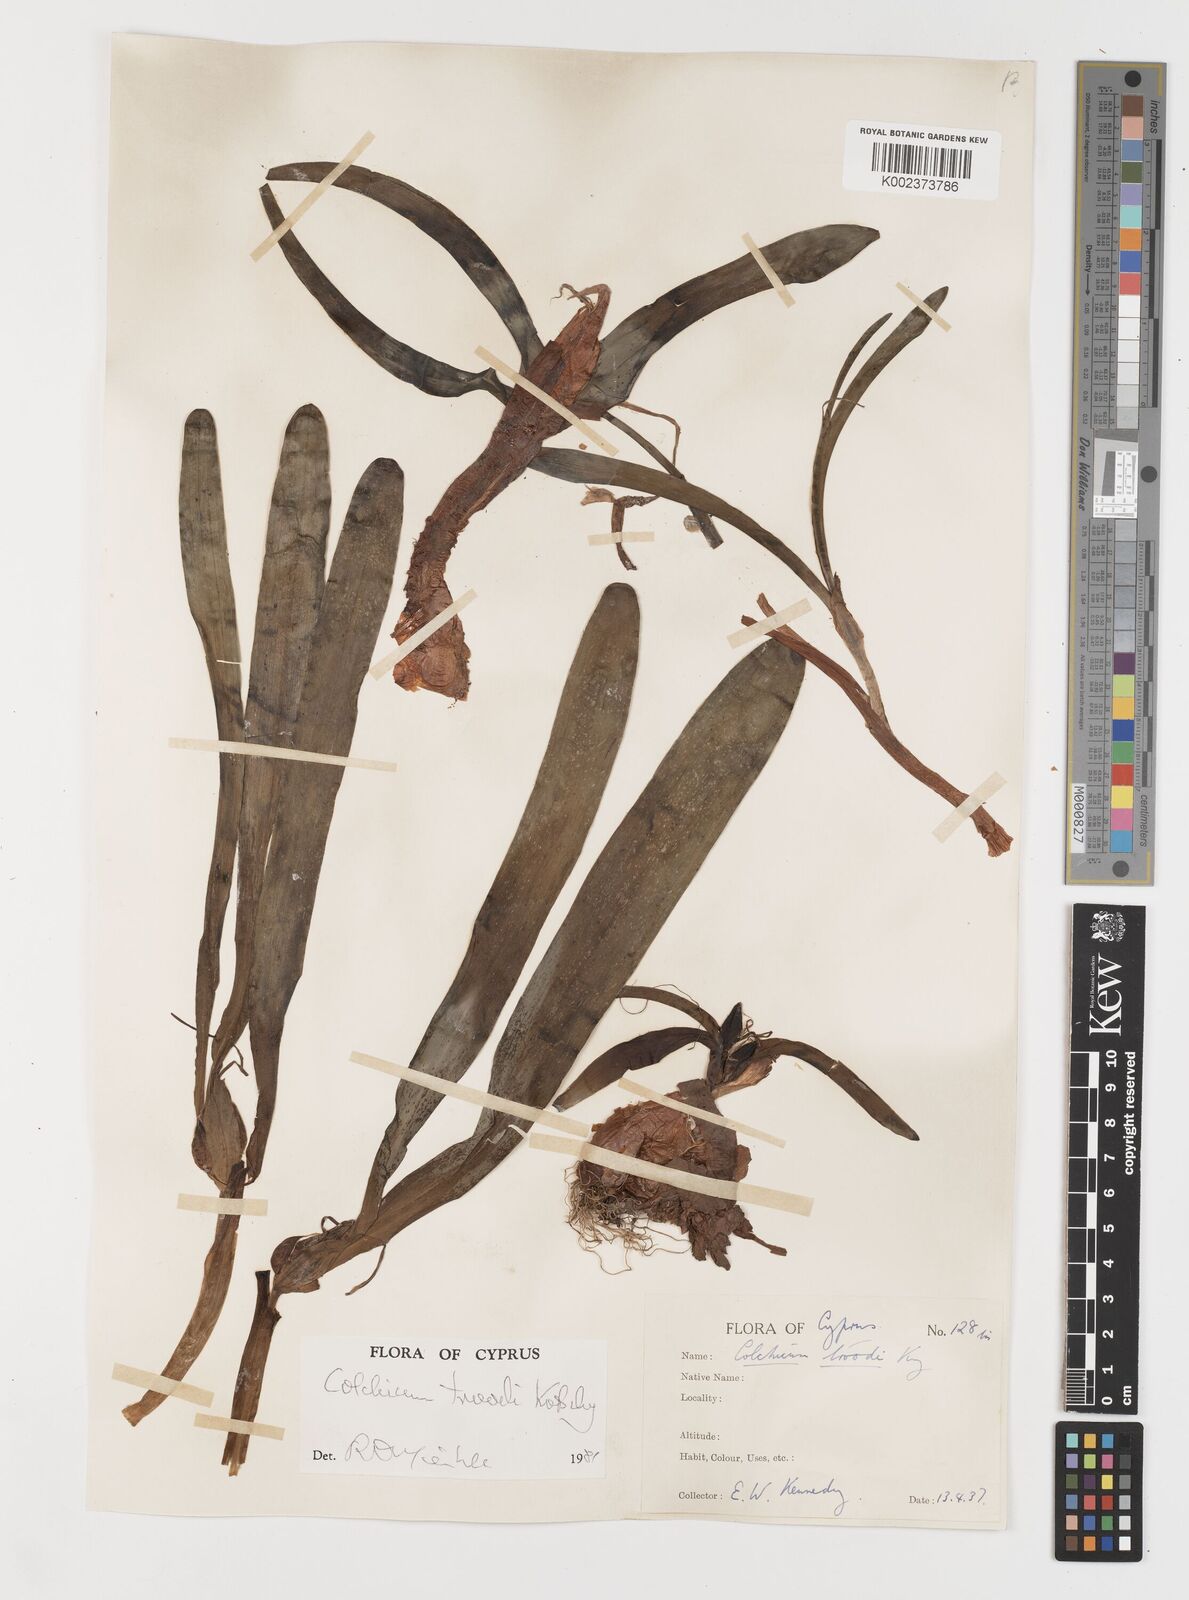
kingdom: Plantae
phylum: Tracheophyta
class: Liliopsida
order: Liliales
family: Colchicaceae
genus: Colchicum
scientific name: Colchicum
